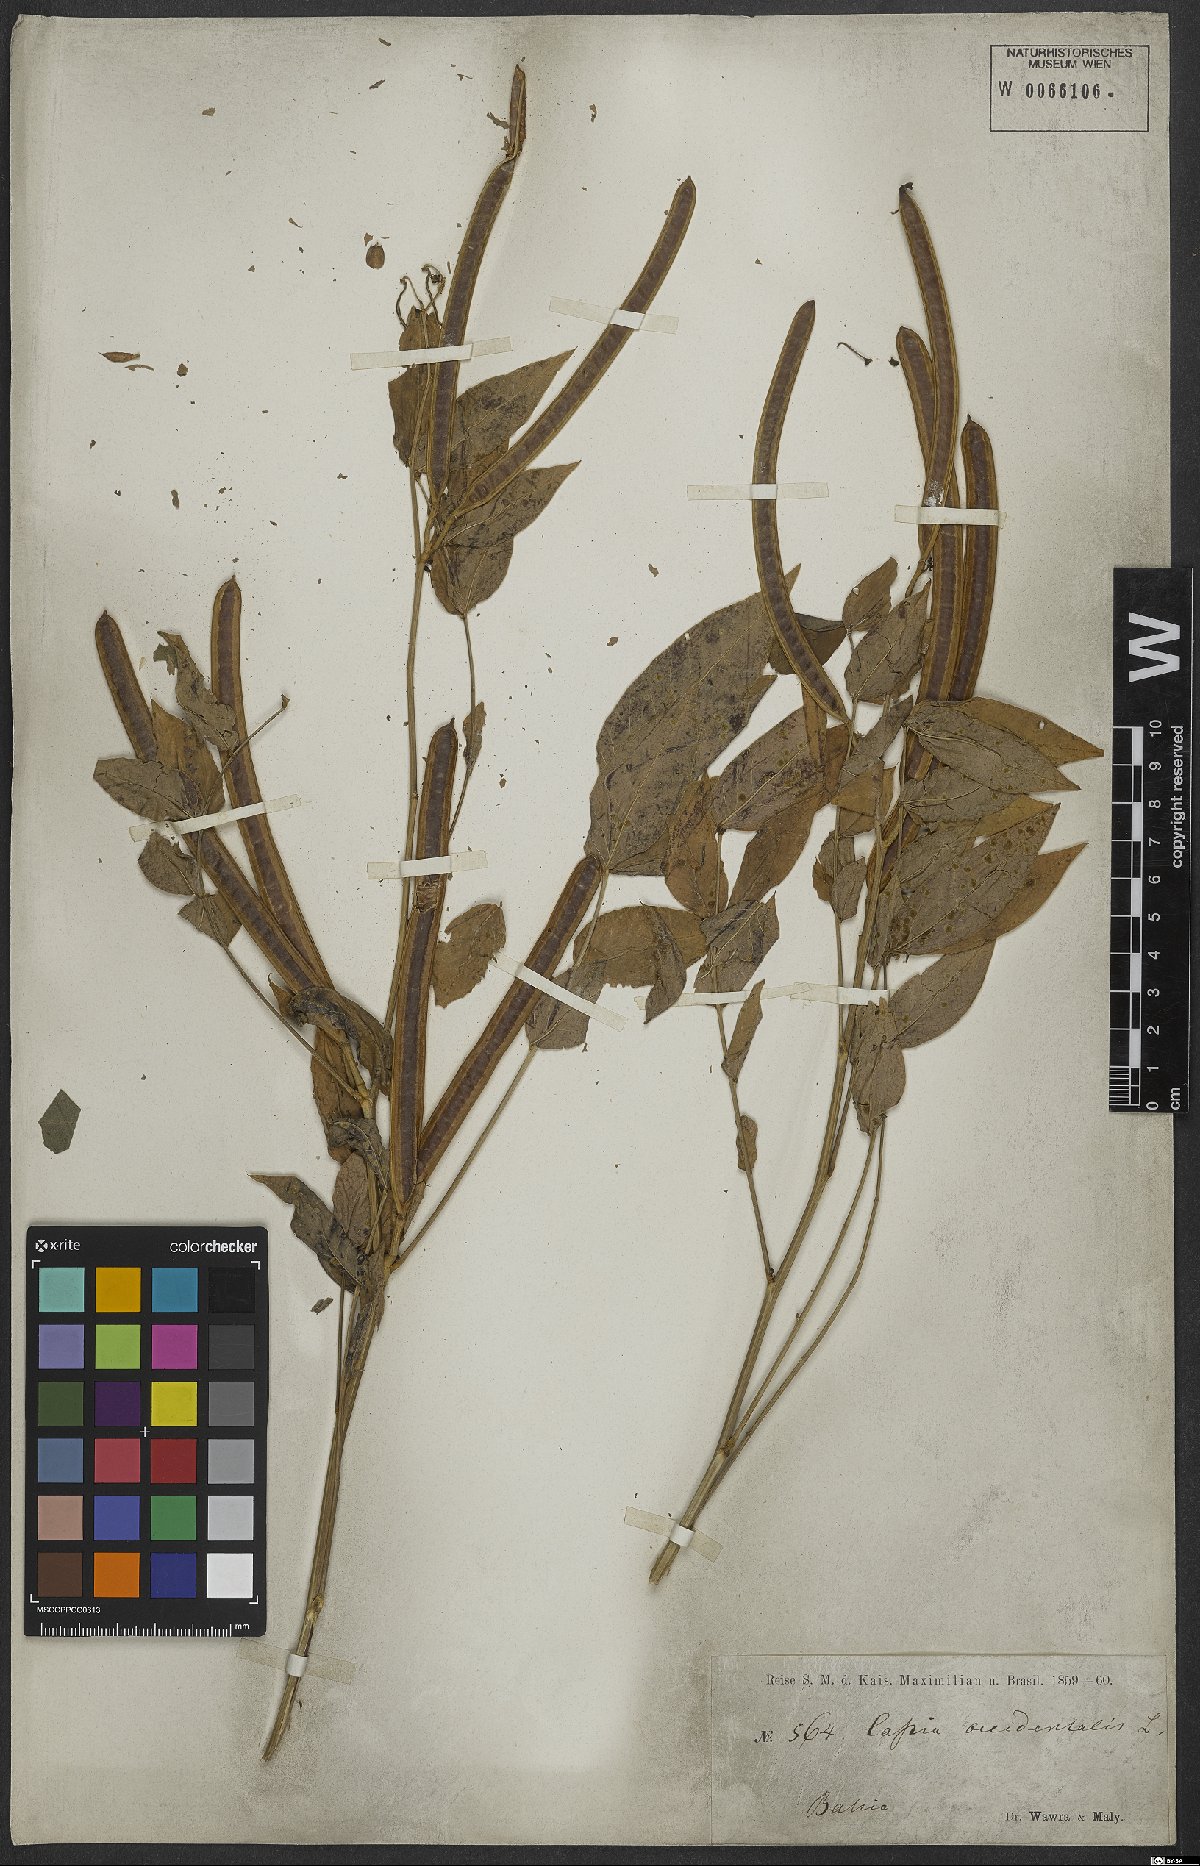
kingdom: Plantae
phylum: Tracheophyta
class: Magnoliopsida
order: Fabales
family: Fabaceae
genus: Senna
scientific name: Senna occidentalis
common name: Septicweed
